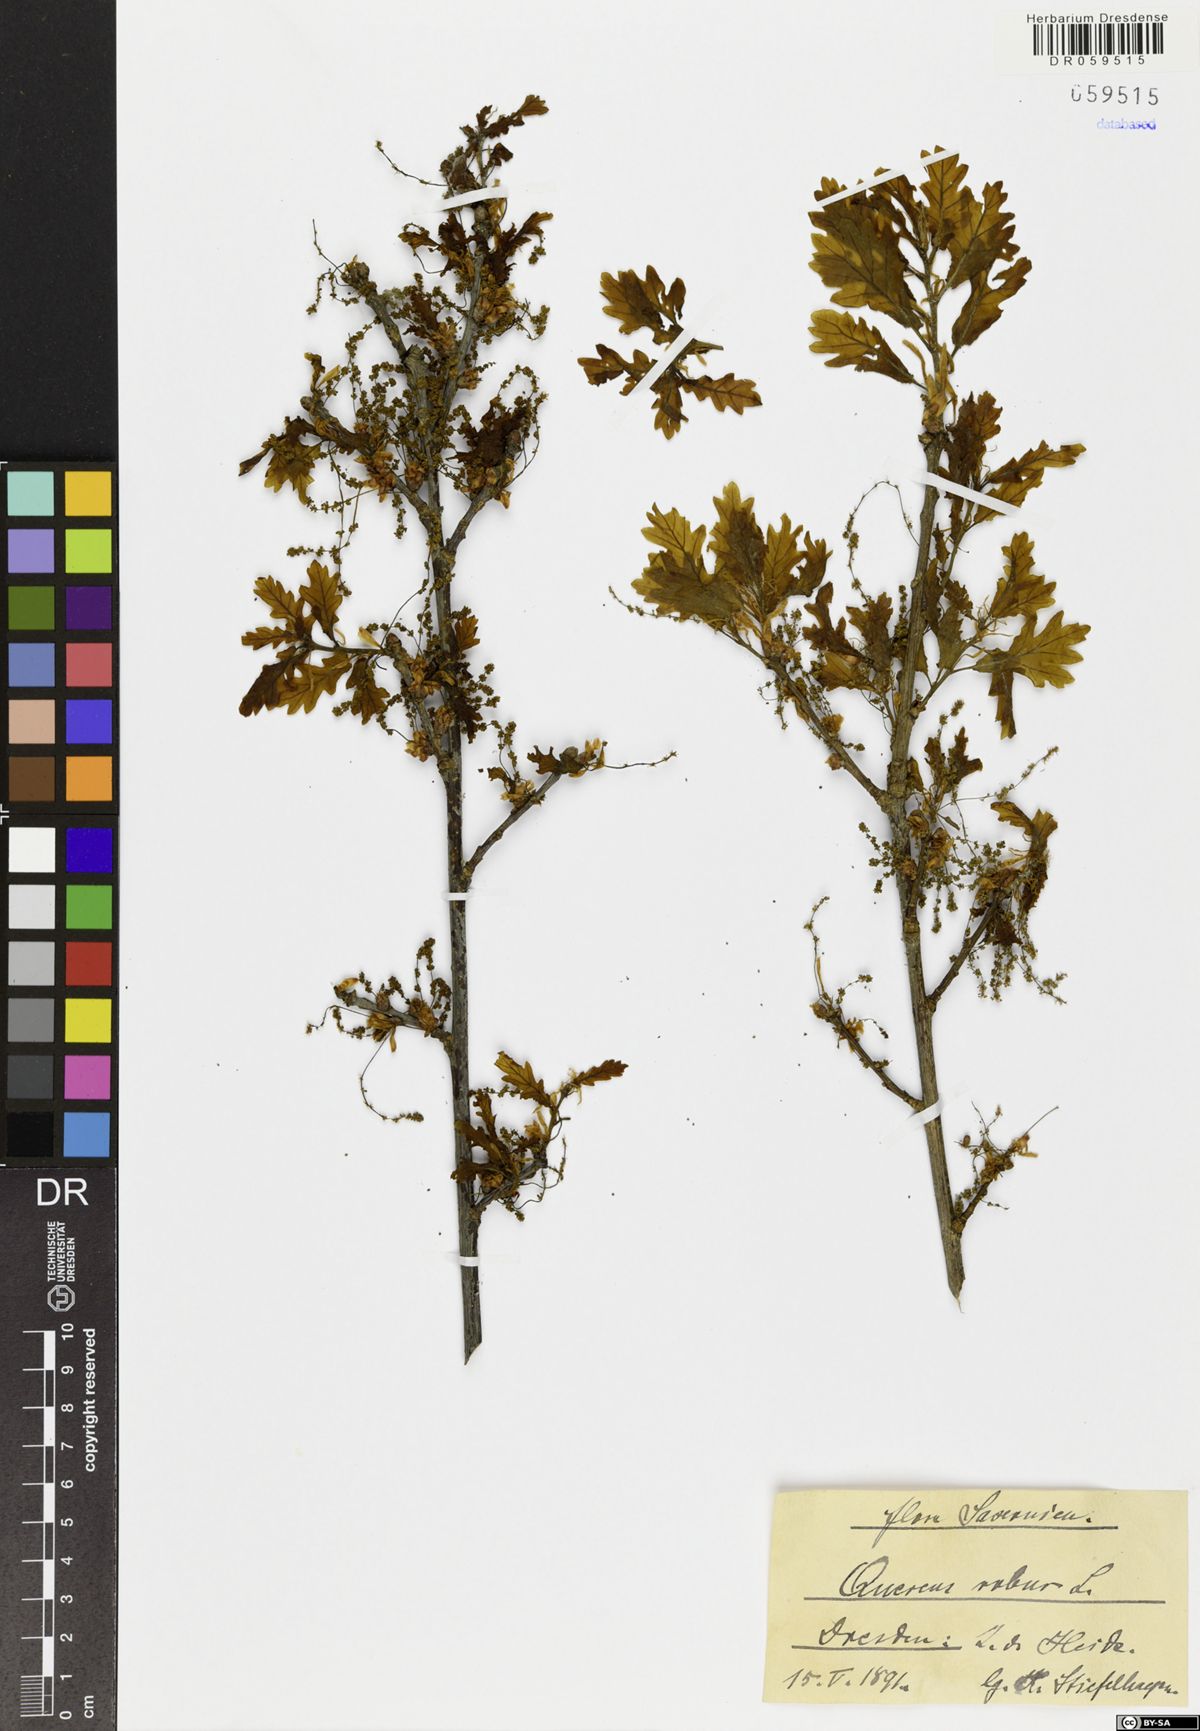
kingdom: Plantae
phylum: Tracheophyta
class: Magnoliopsida
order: Fagales
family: Fagaceae
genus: Quercus
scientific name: Quercus robur
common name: Pedunculate oak
